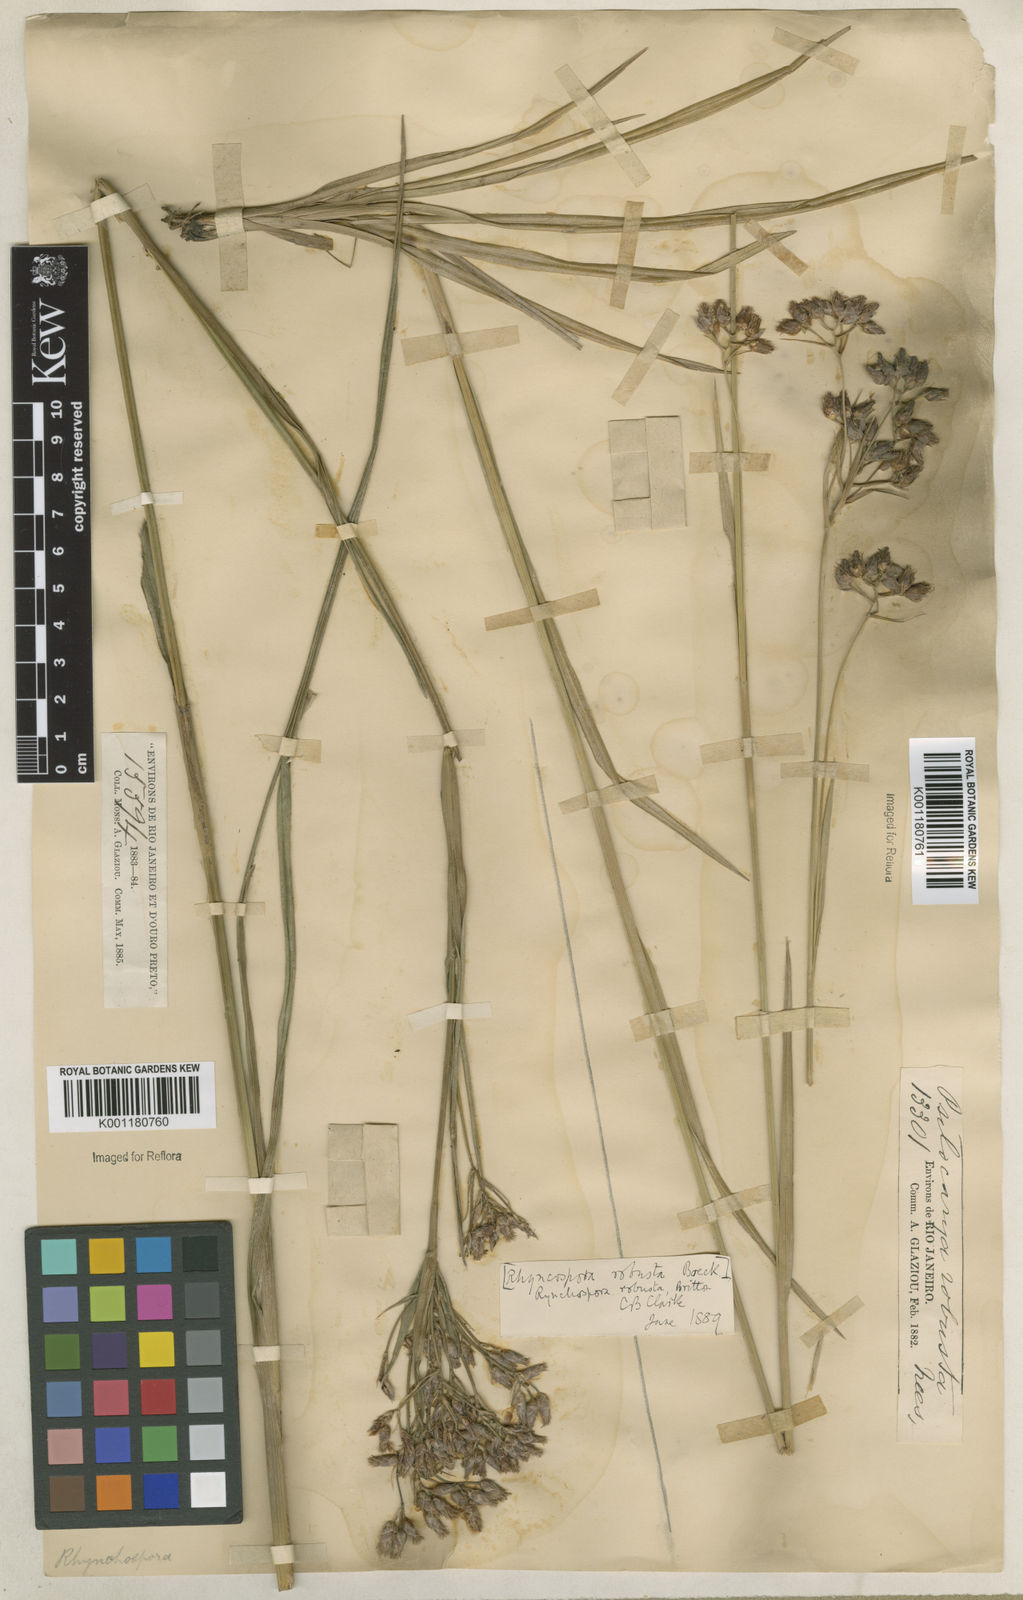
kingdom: Plantae
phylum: Tracheophyta
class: Liliopsida
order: Poales
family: Cyperaceae
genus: Rhynchospora
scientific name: Rhynchospora robusta
